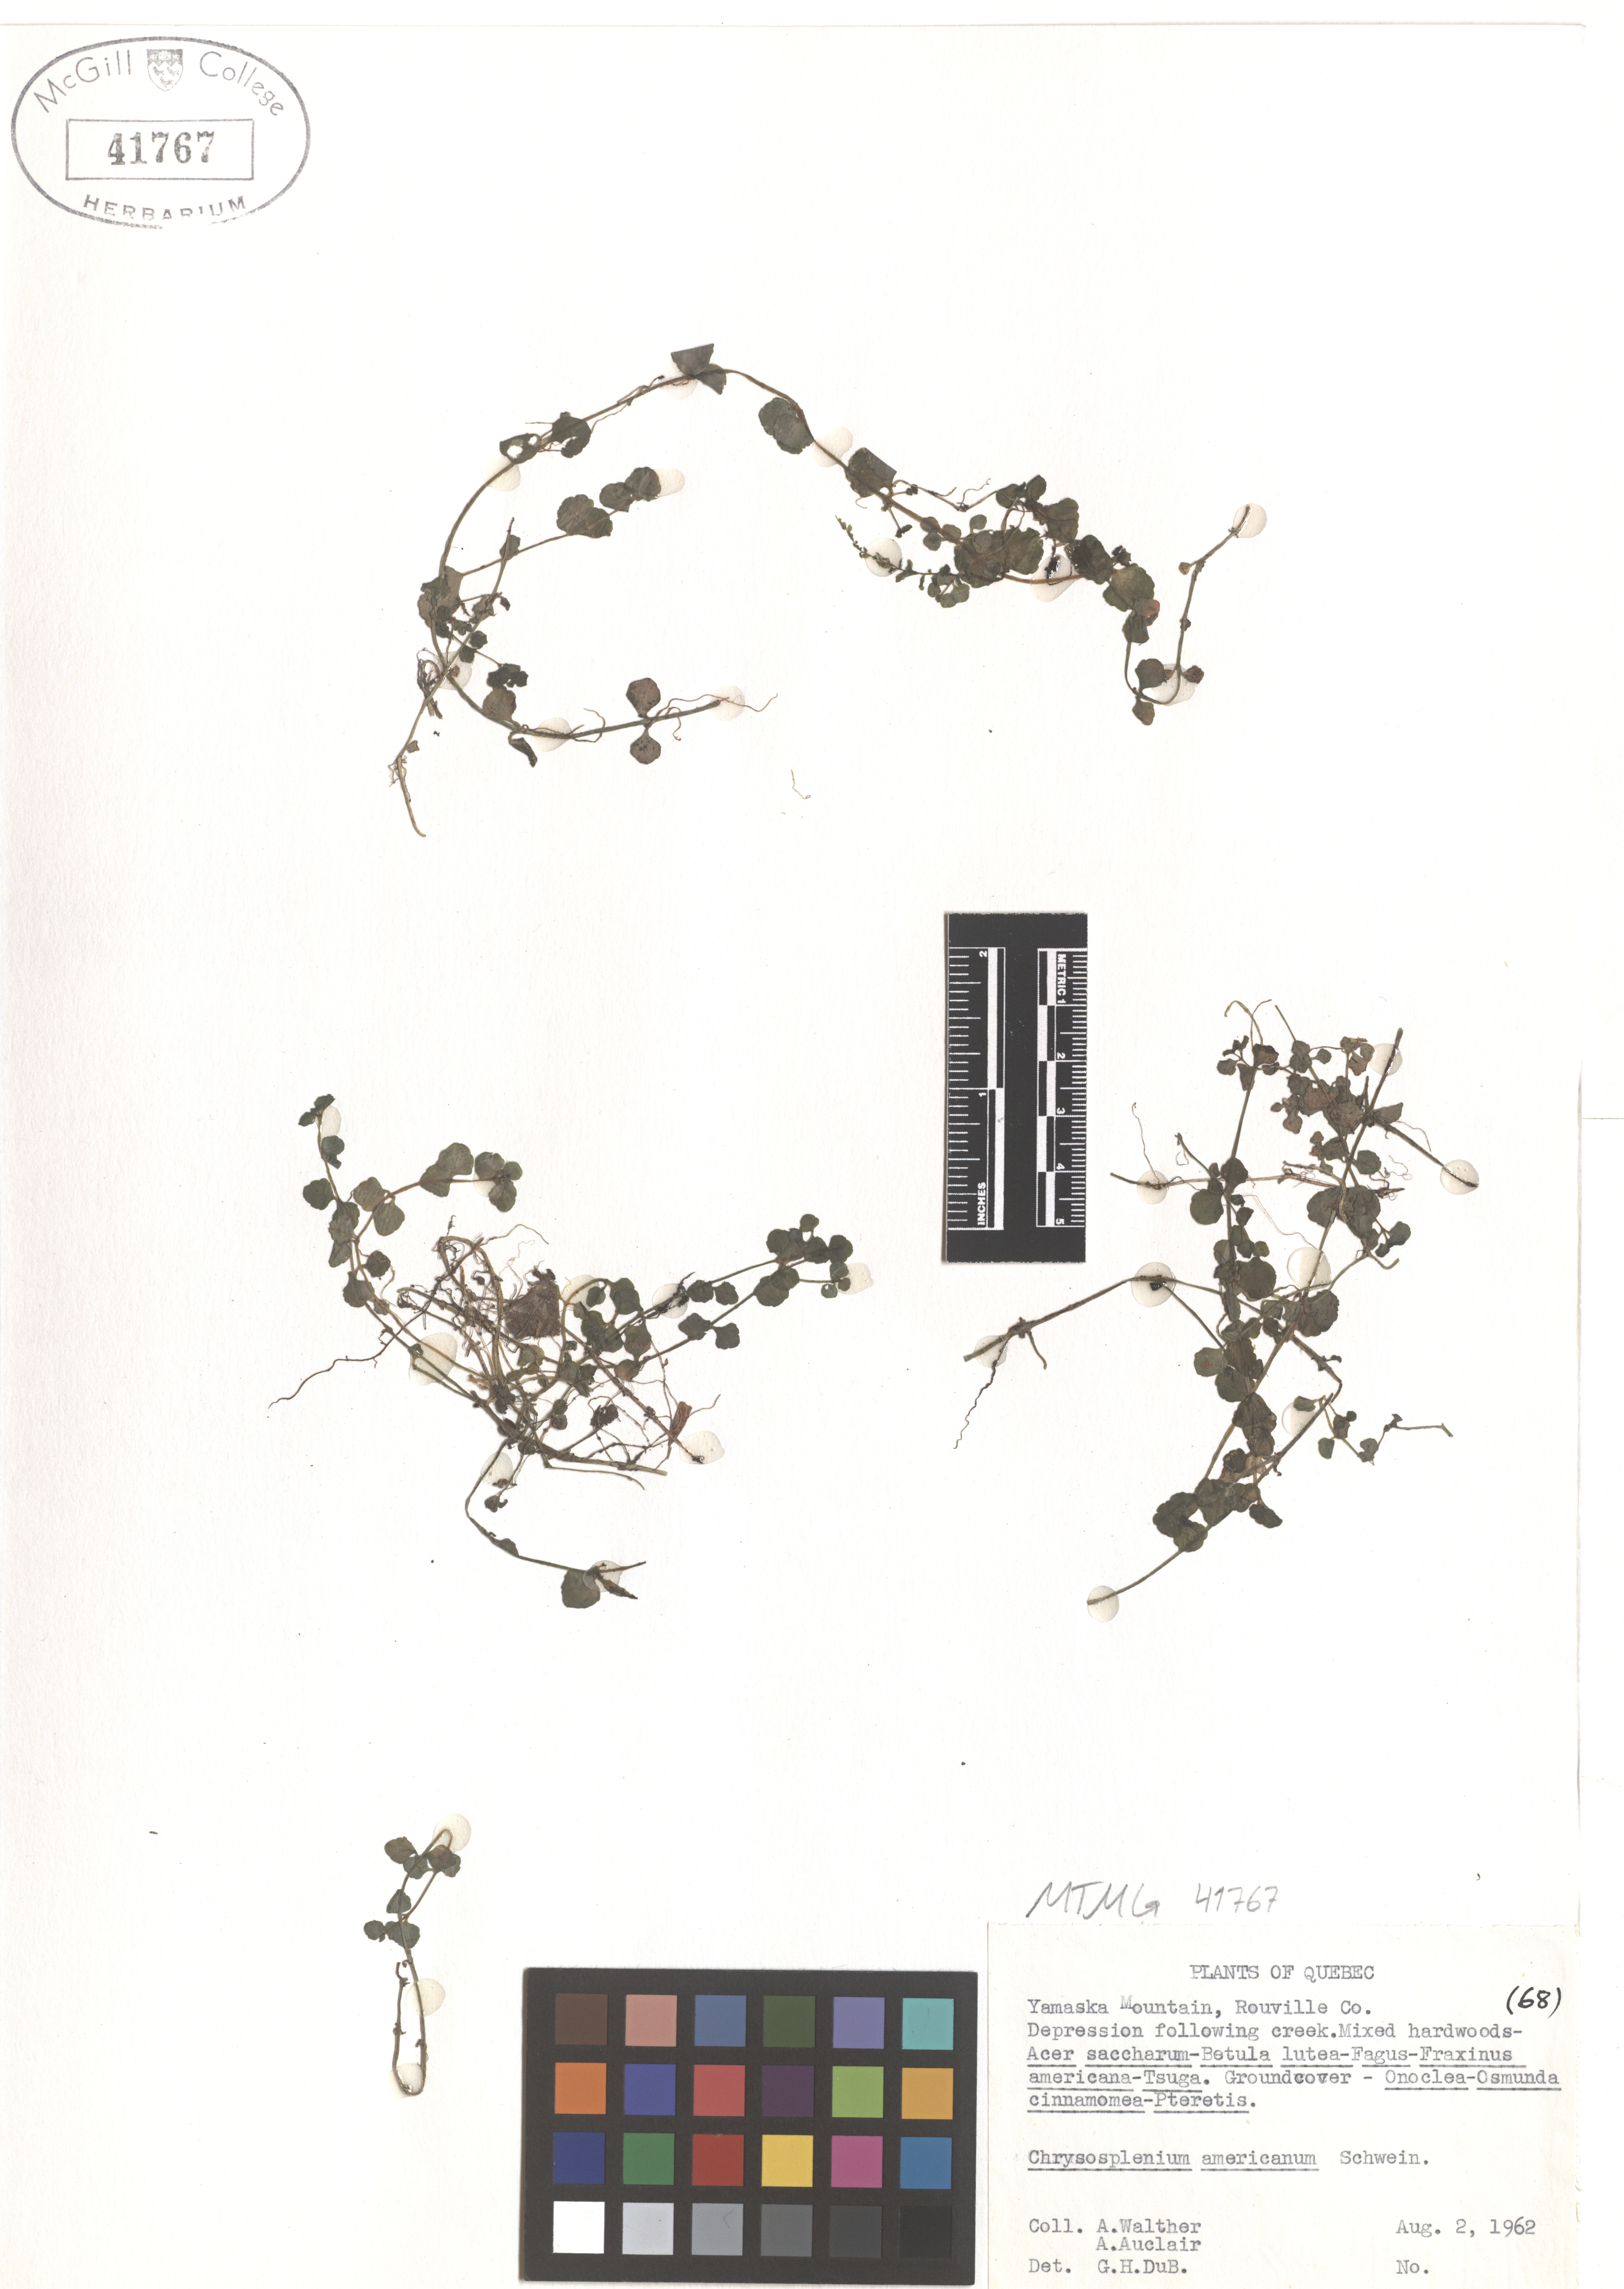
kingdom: Plantae
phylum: Tracheophyta
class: Magnoliopsida
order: Saxifragales
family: Saxifragaceae
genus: Chrysosplenium
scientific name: Chrysosplenium americanum
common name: American golden-saxifrage
